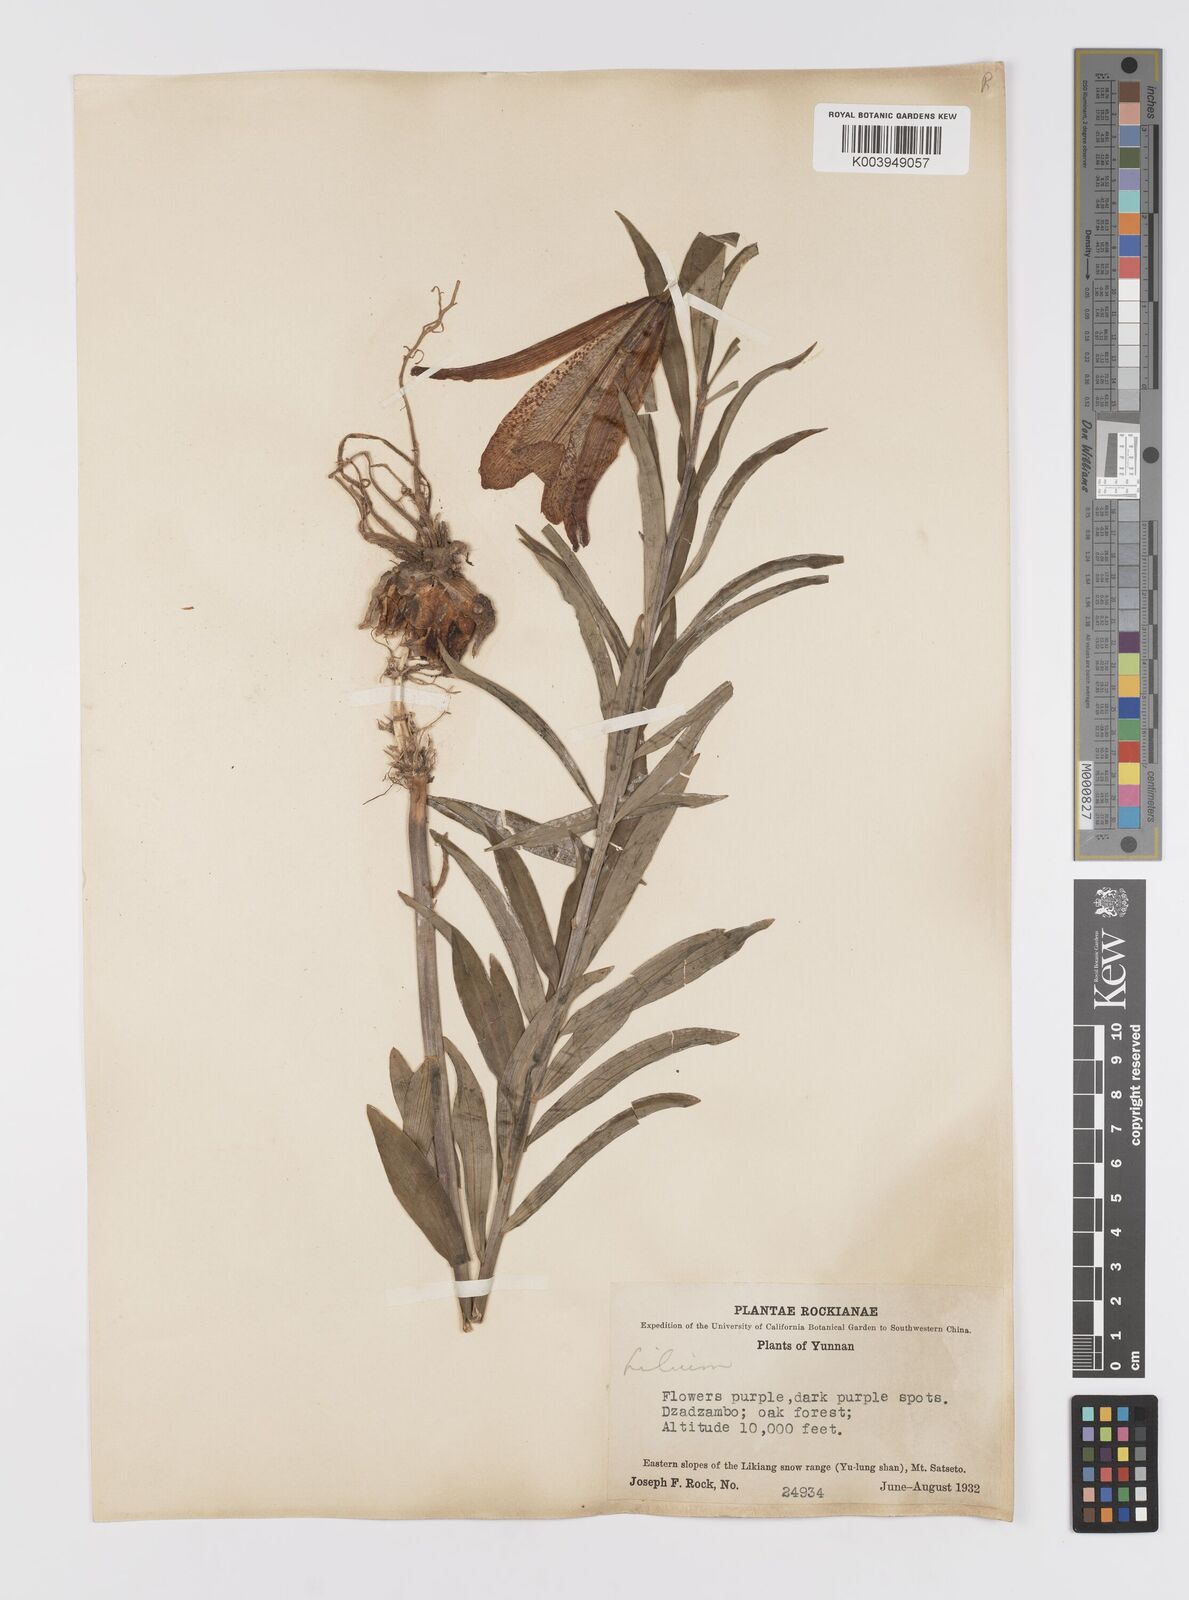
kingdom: Plantae
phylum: Tracheophyta
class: Liliopsida
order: Liliales
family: Liliaceae
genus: Lilium
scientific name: Lilium bakerianum
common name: Baker's lily
